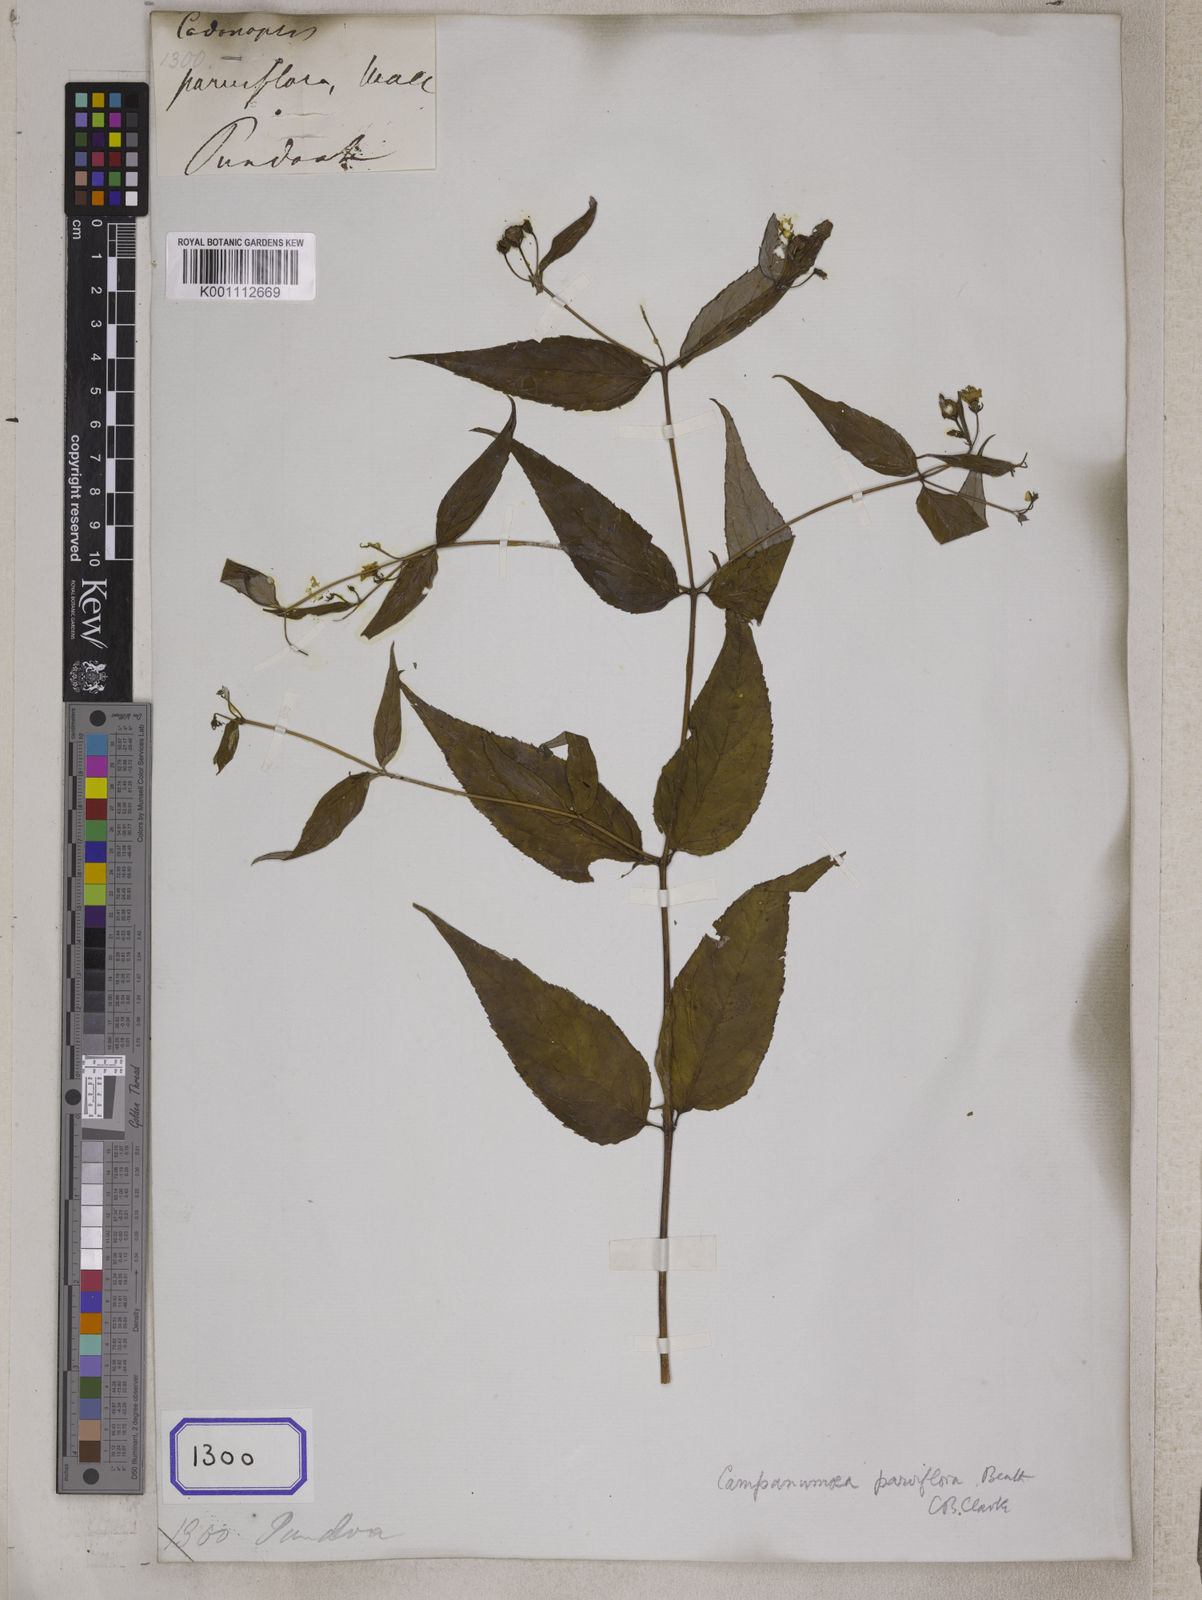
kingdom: Plantae
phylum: Tracheophyta
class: Magnoliopsida
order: Asterales
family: Campanulaceae
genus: Codonopsis
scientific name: Codonopsis
